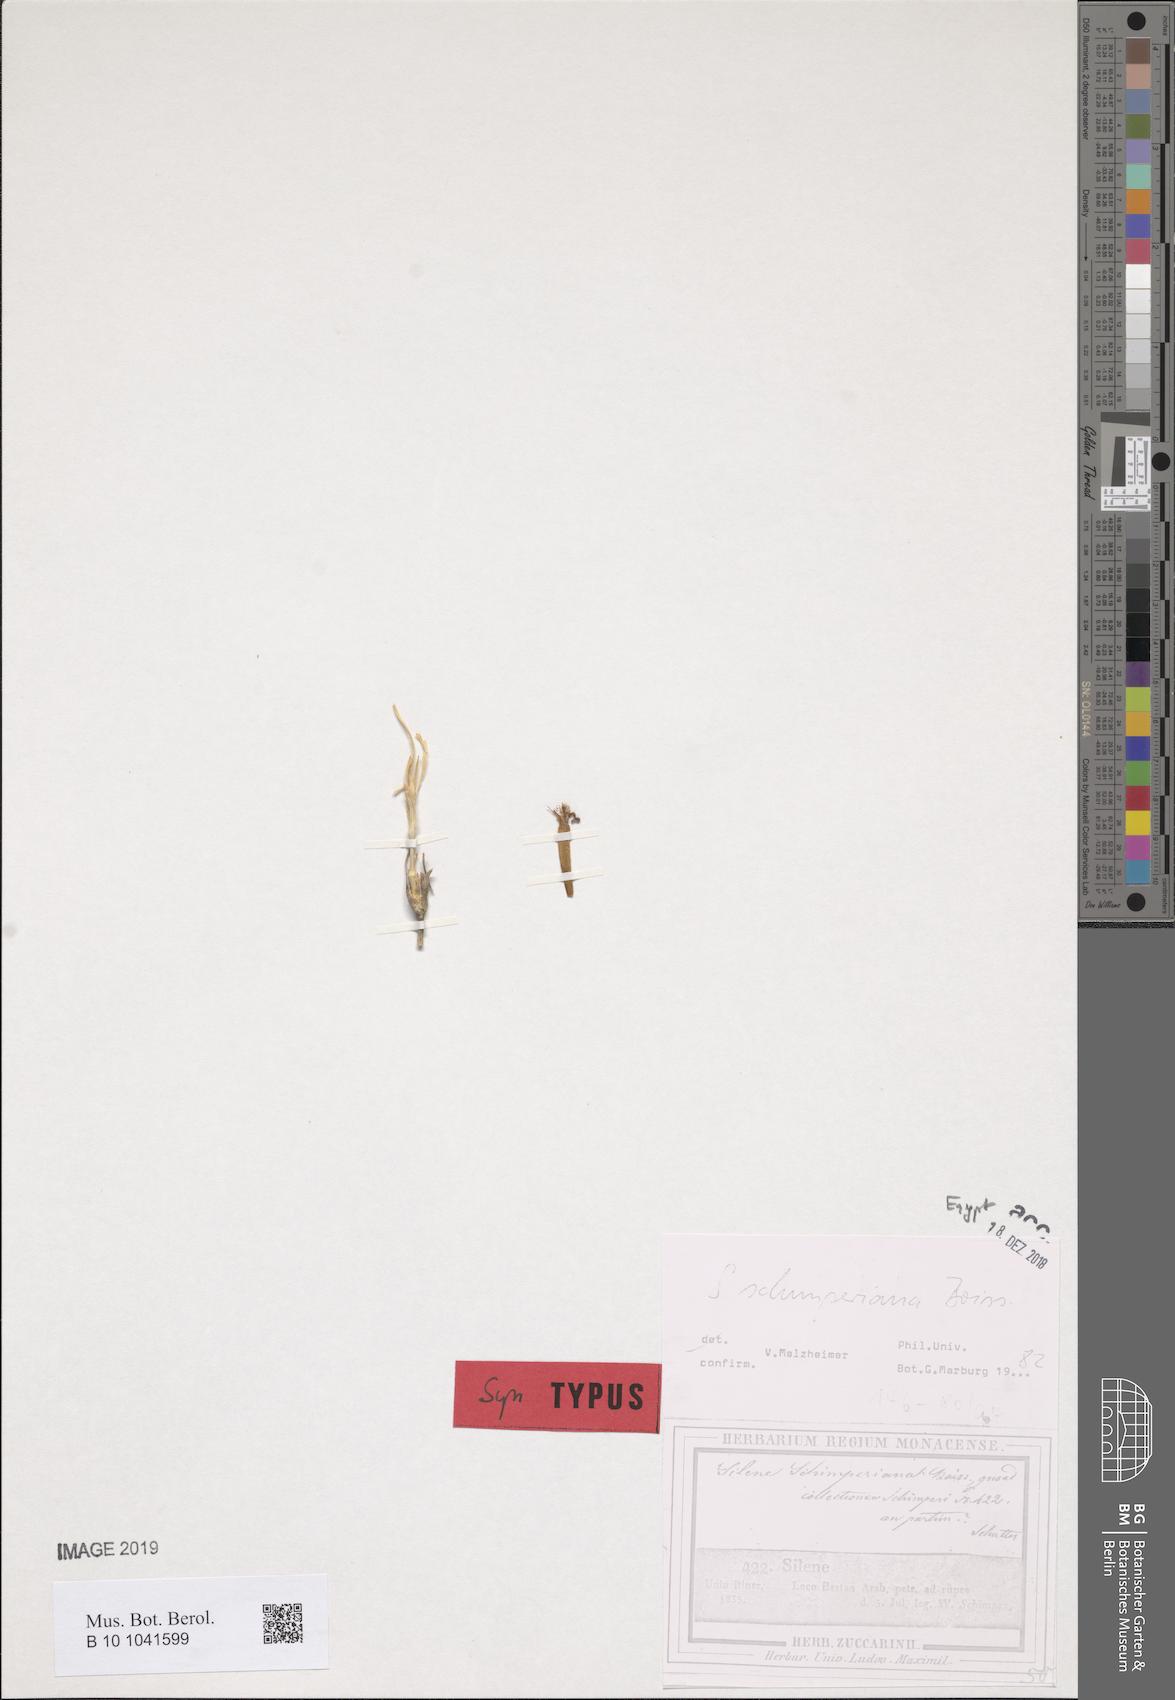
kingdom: Plantae
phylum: Tracheophyta
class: Magnoliopsida
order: Caryophyllales
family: Caryophyllaceae
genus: Silene
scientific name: Silene schimperiana
